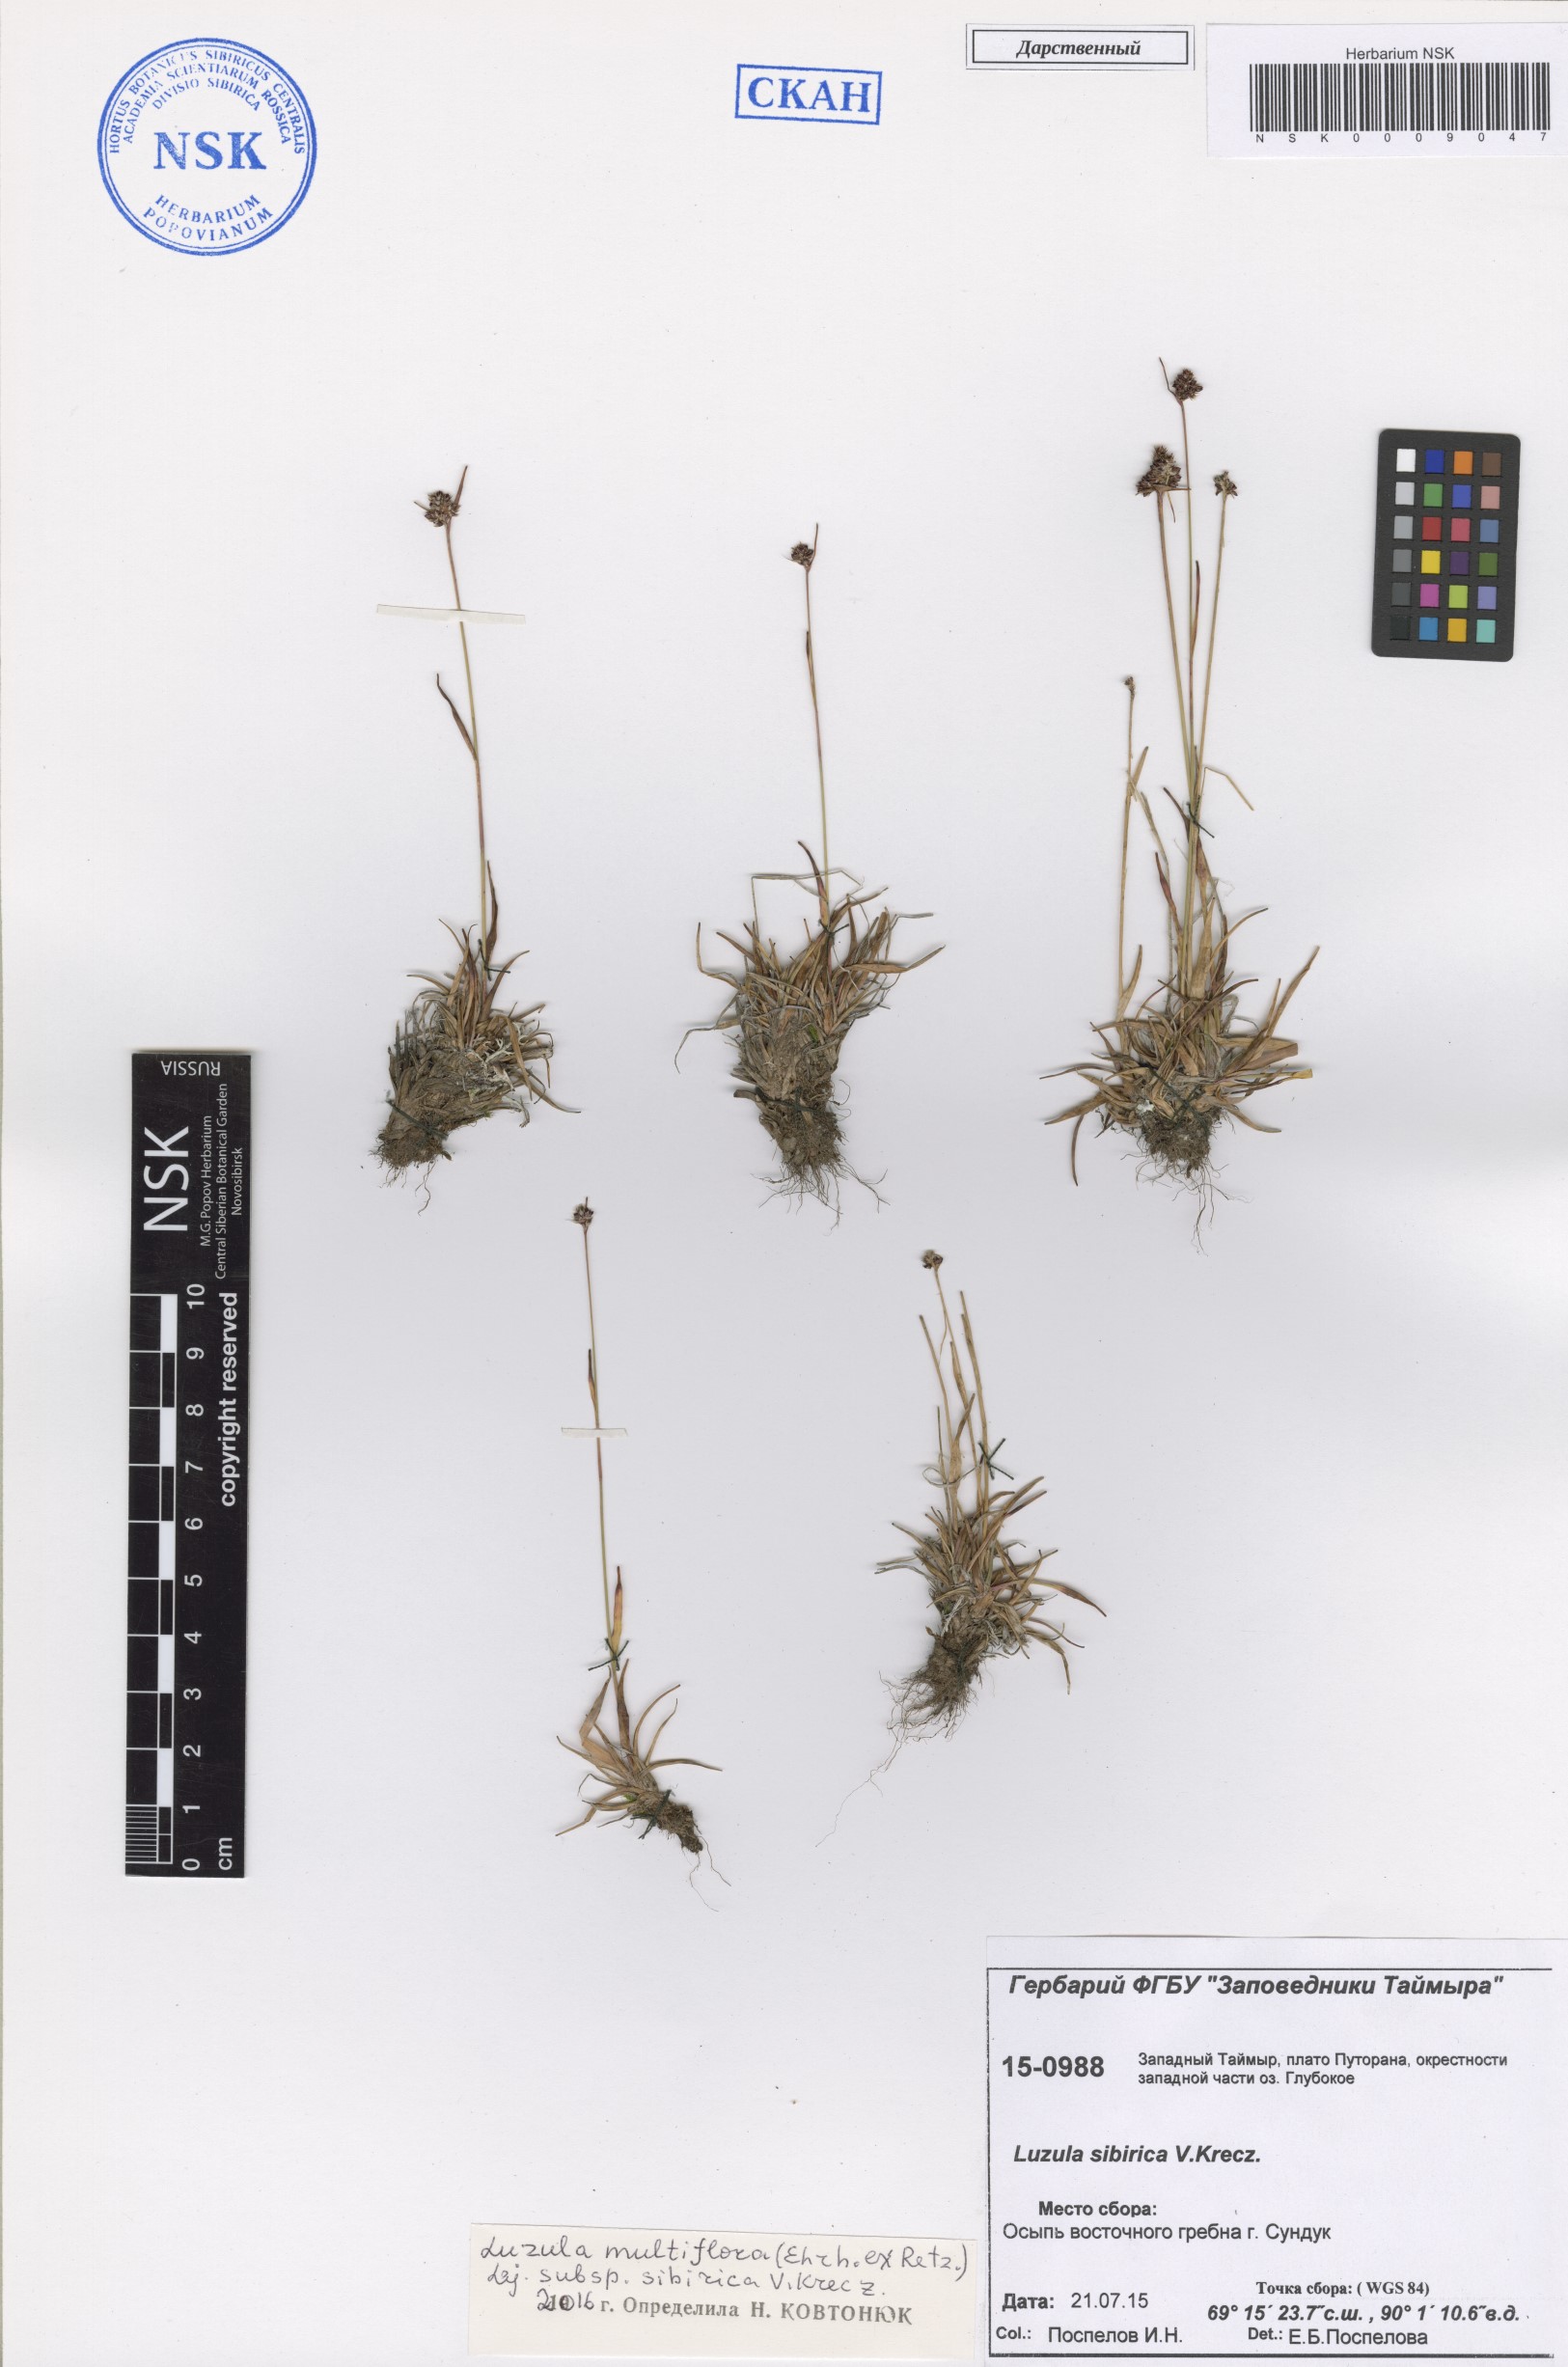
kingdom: Plantae
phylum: Tracheophyta
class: Liliopsida
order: Poales
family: Juncaceae
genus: Luzula
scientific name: Luzula multiflora
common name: Heath wood-rush
